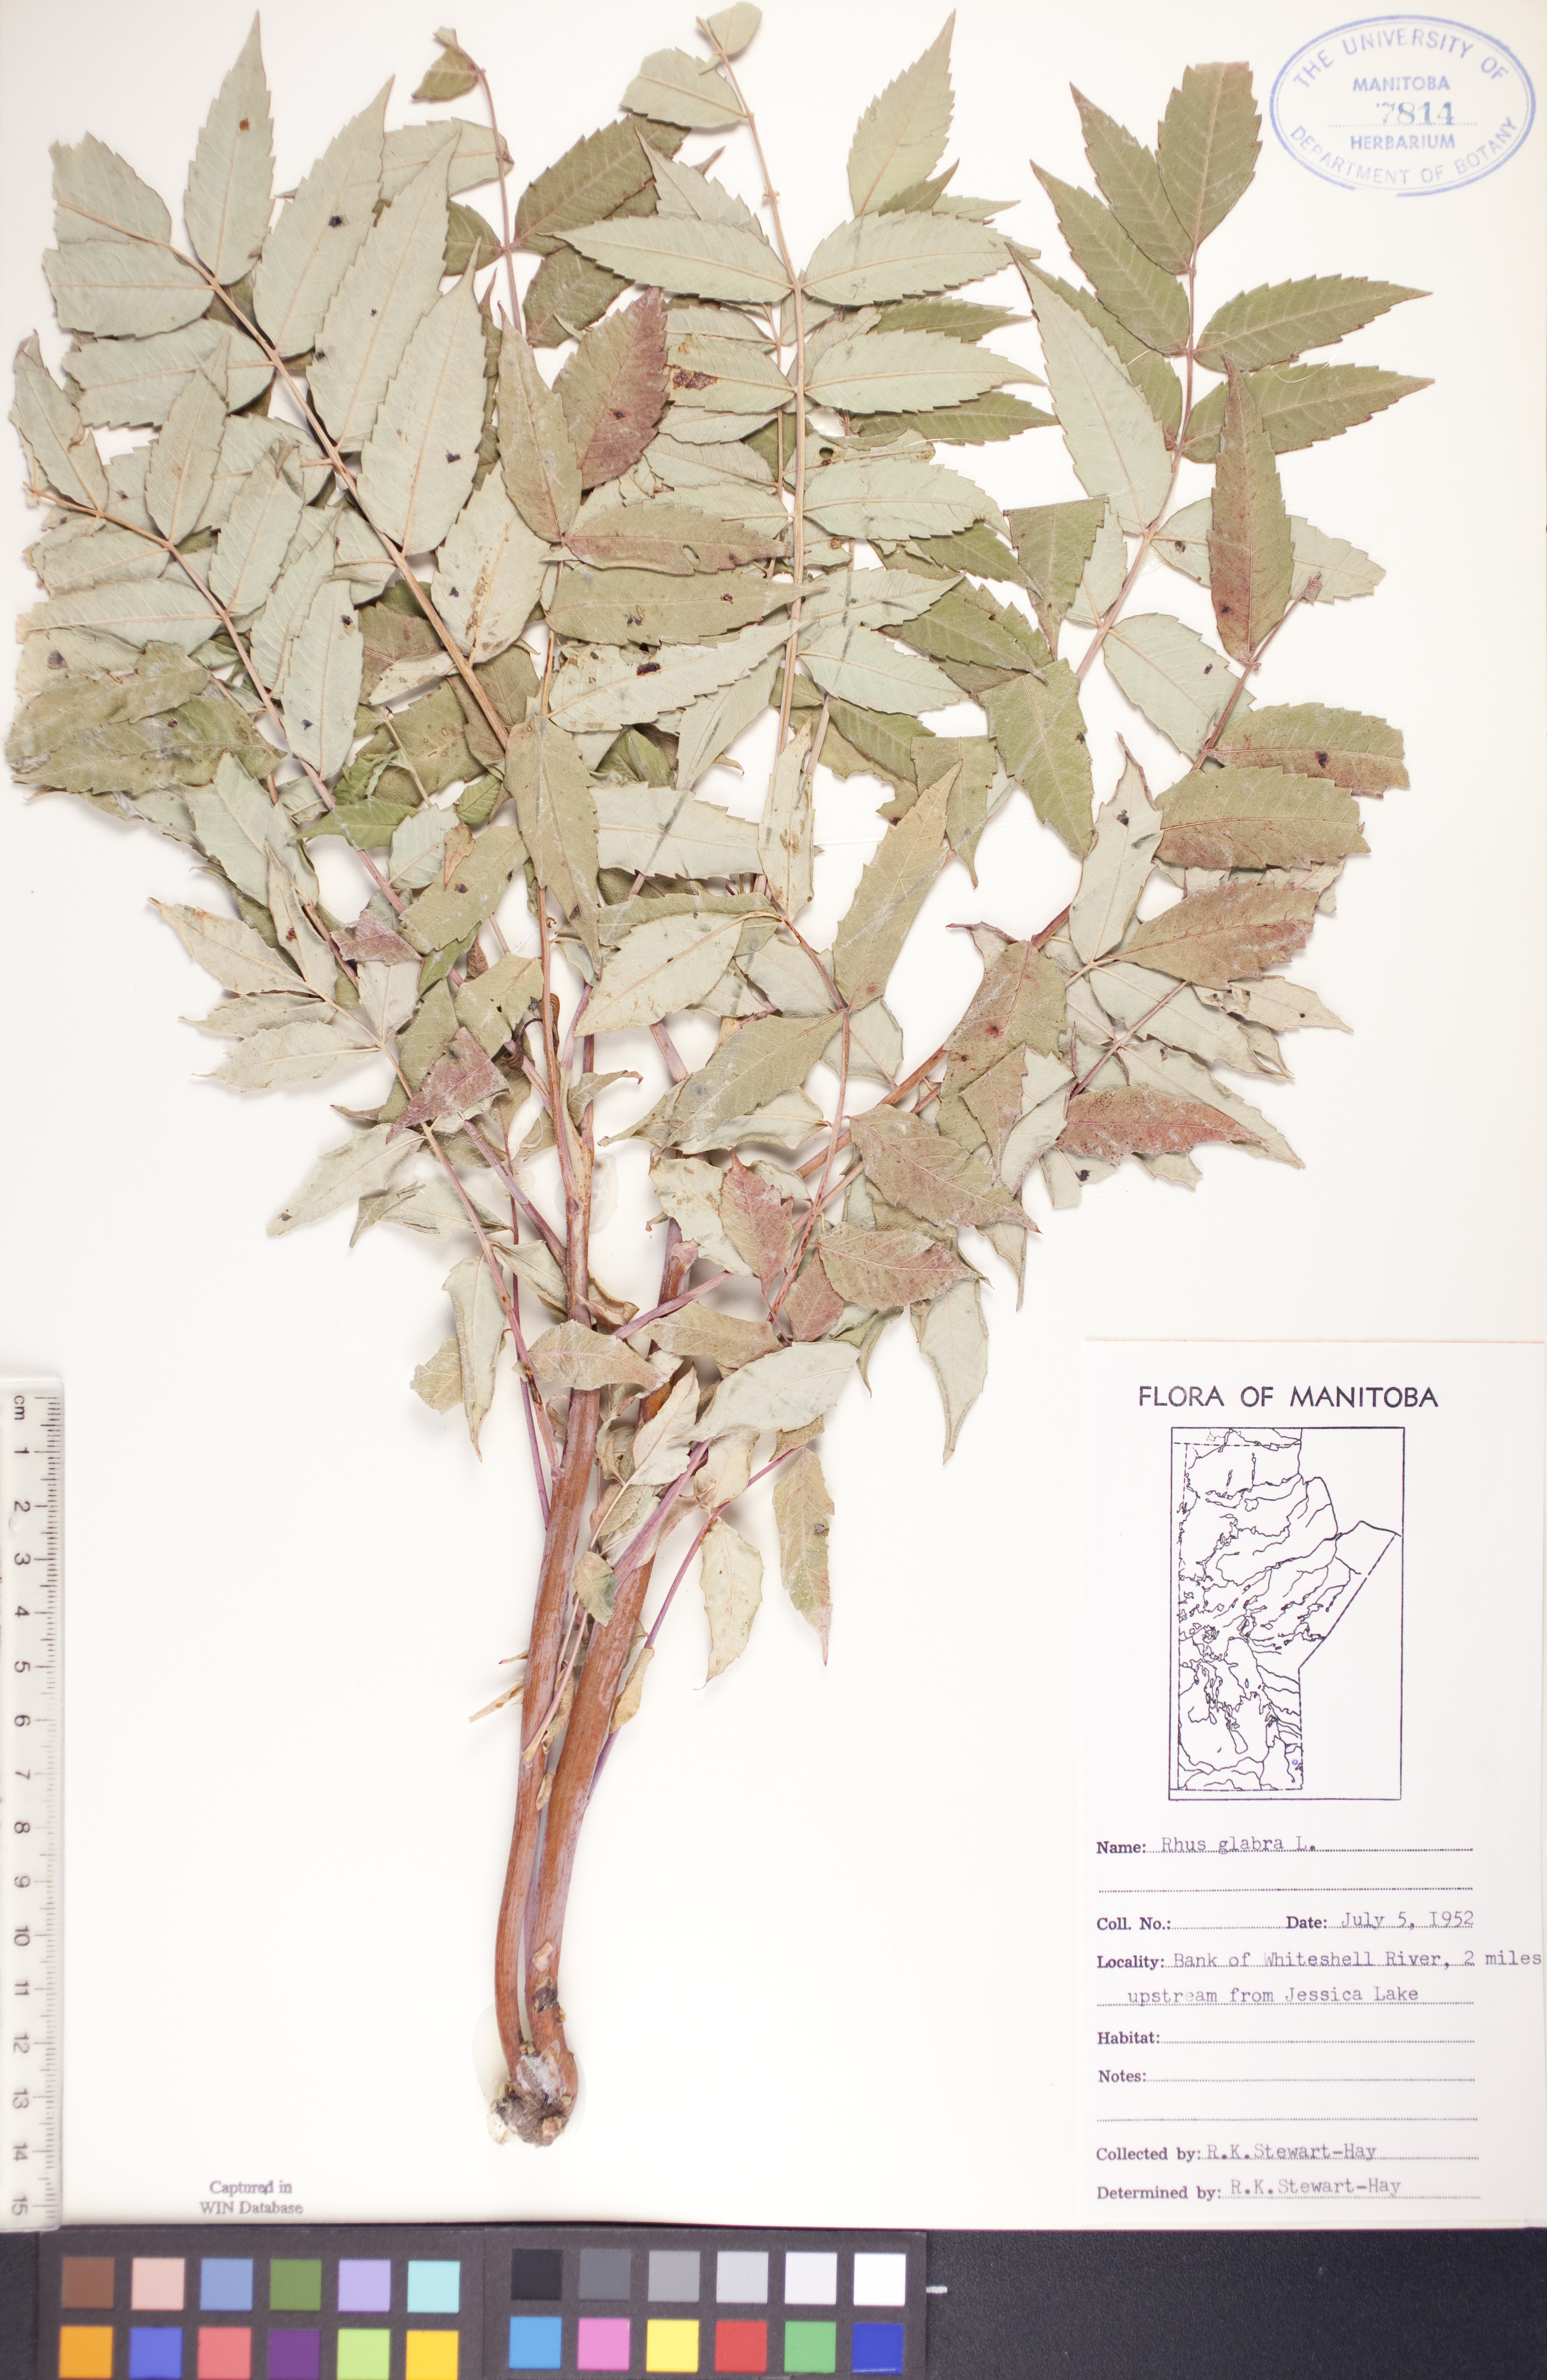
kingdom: Plantae
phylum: Tracheophyta
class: Magnoliopsida
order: Sapindales
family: Anacardiaceae
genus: Rhus
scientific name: Rhus glabra
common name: Scarlet sumac
